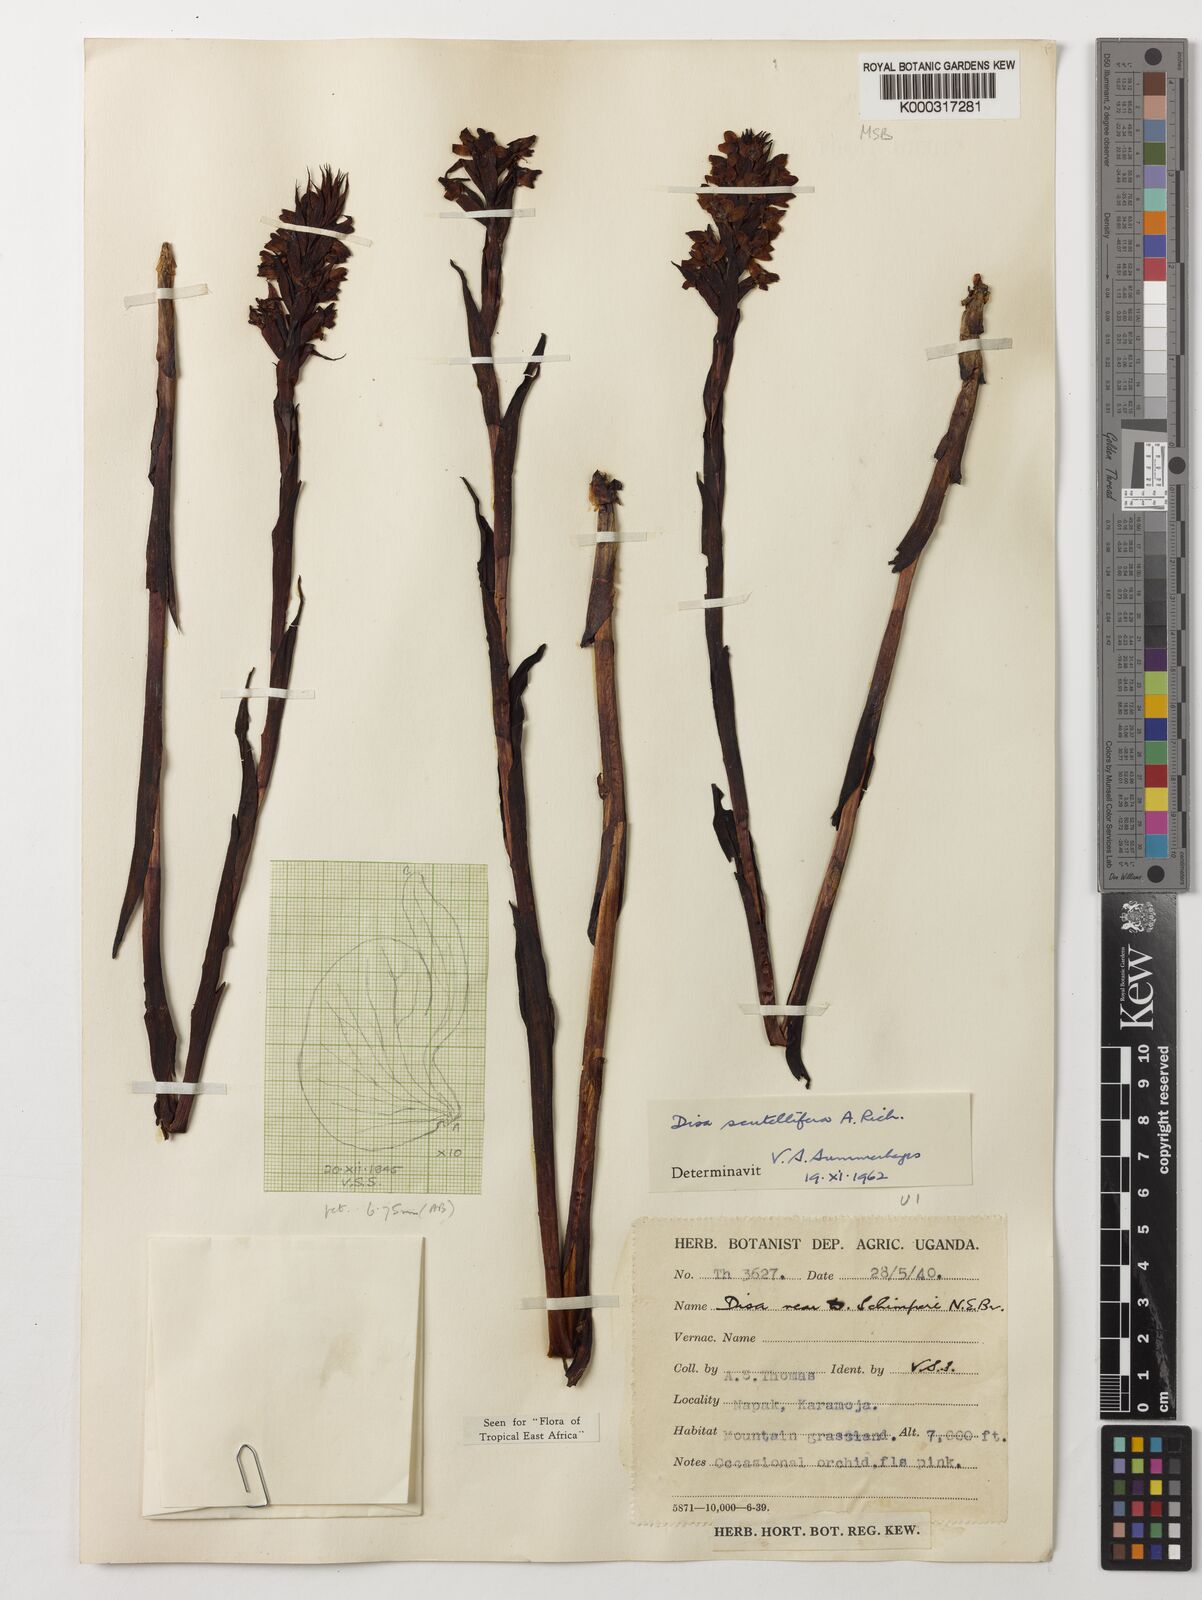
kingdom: Plantae
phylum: Tracheophyta
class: Liliopsida
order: Asparagales
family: Orchidaceae
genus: Disa
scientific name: Disa scutellifera
